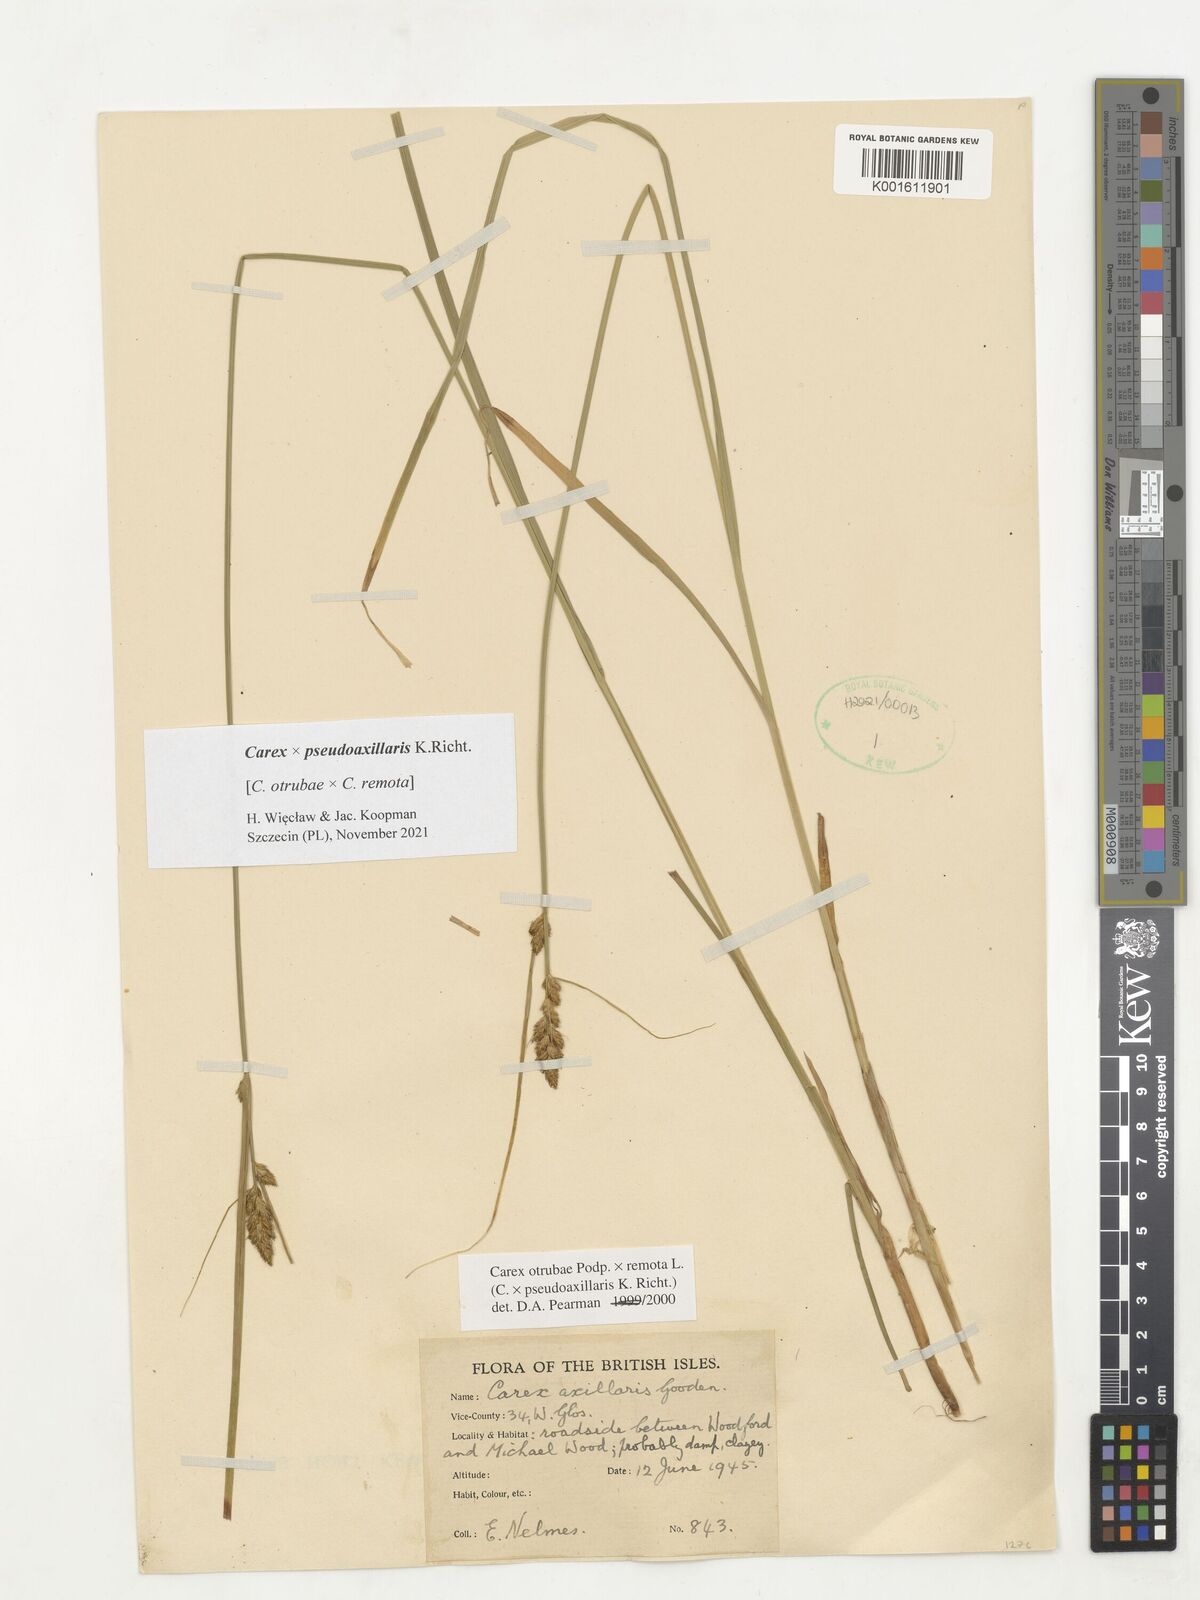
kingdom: Plantae
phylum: Tracheophyta
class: Liliopsida
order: Poales
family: Cyperaceae
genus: Carex
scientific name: Carex pseudoaxillaris
